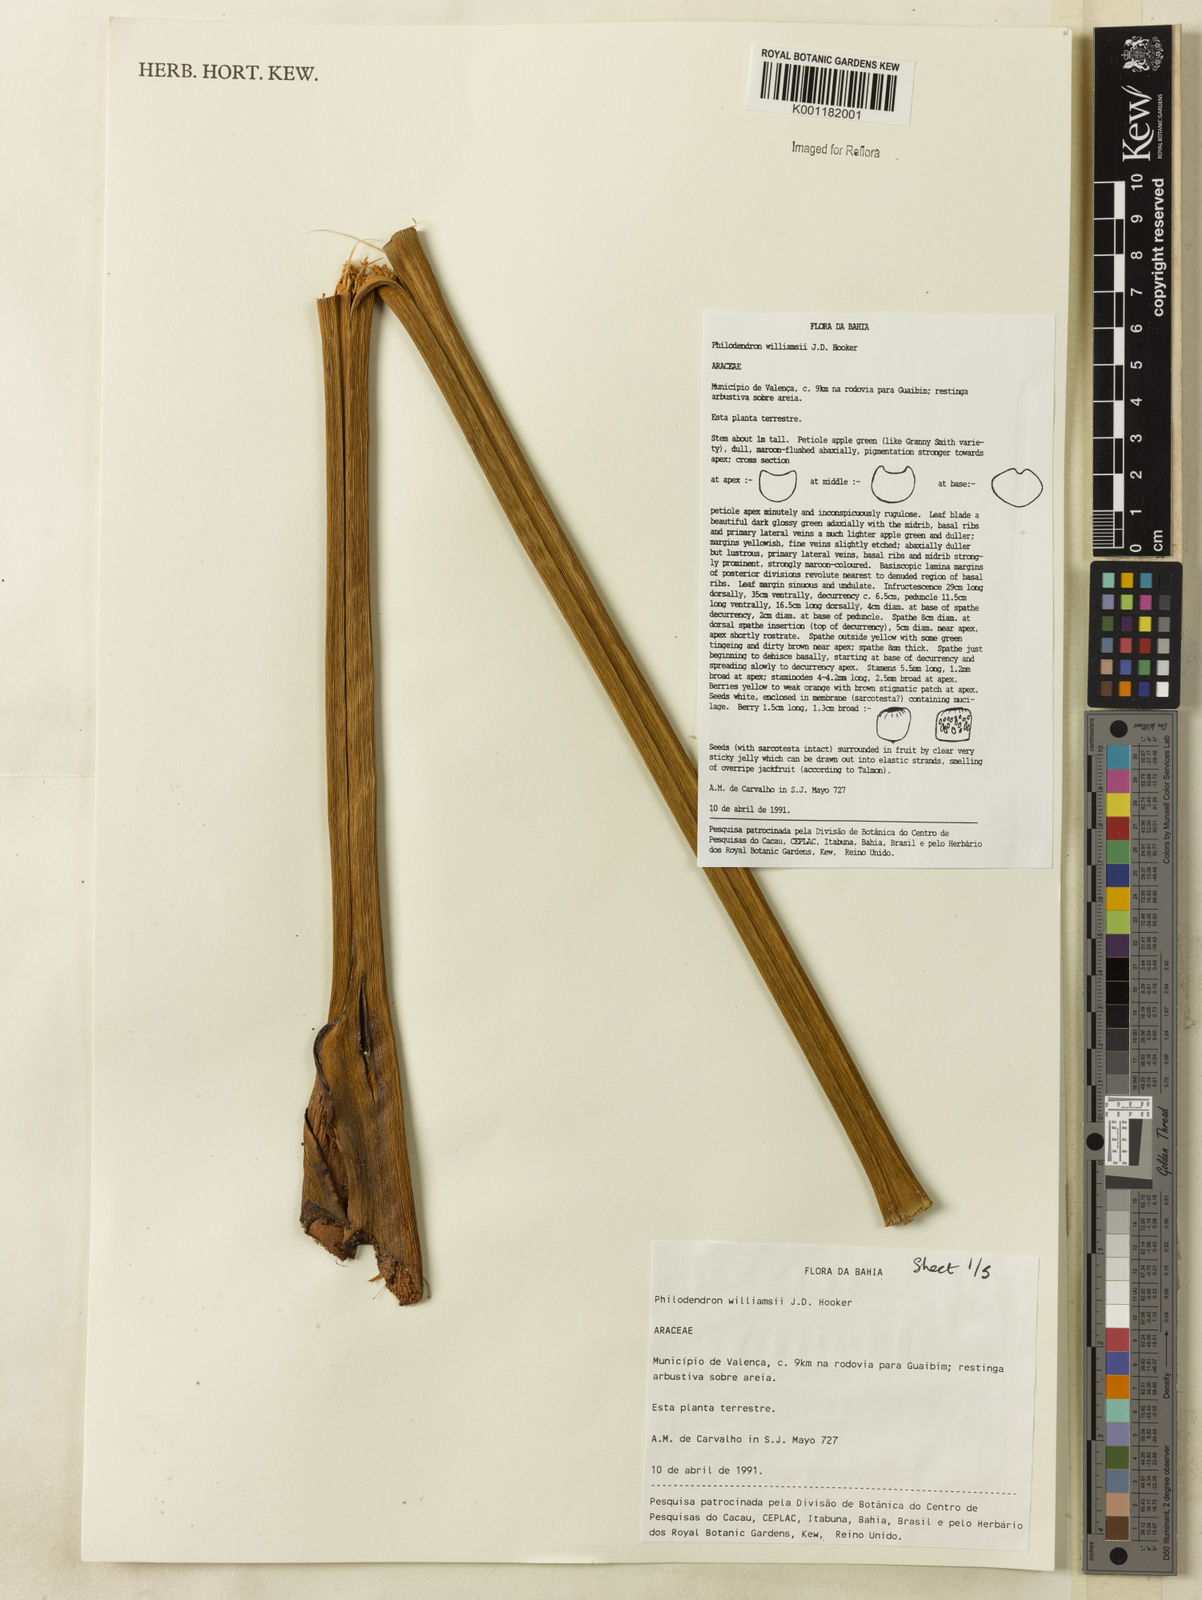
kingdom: Plantae
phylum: Tracheophyta
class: Liliopsida
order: Alismatales
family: Araceae
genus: Thaumatophyllum
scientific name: Thaumatophyllum williamsii
